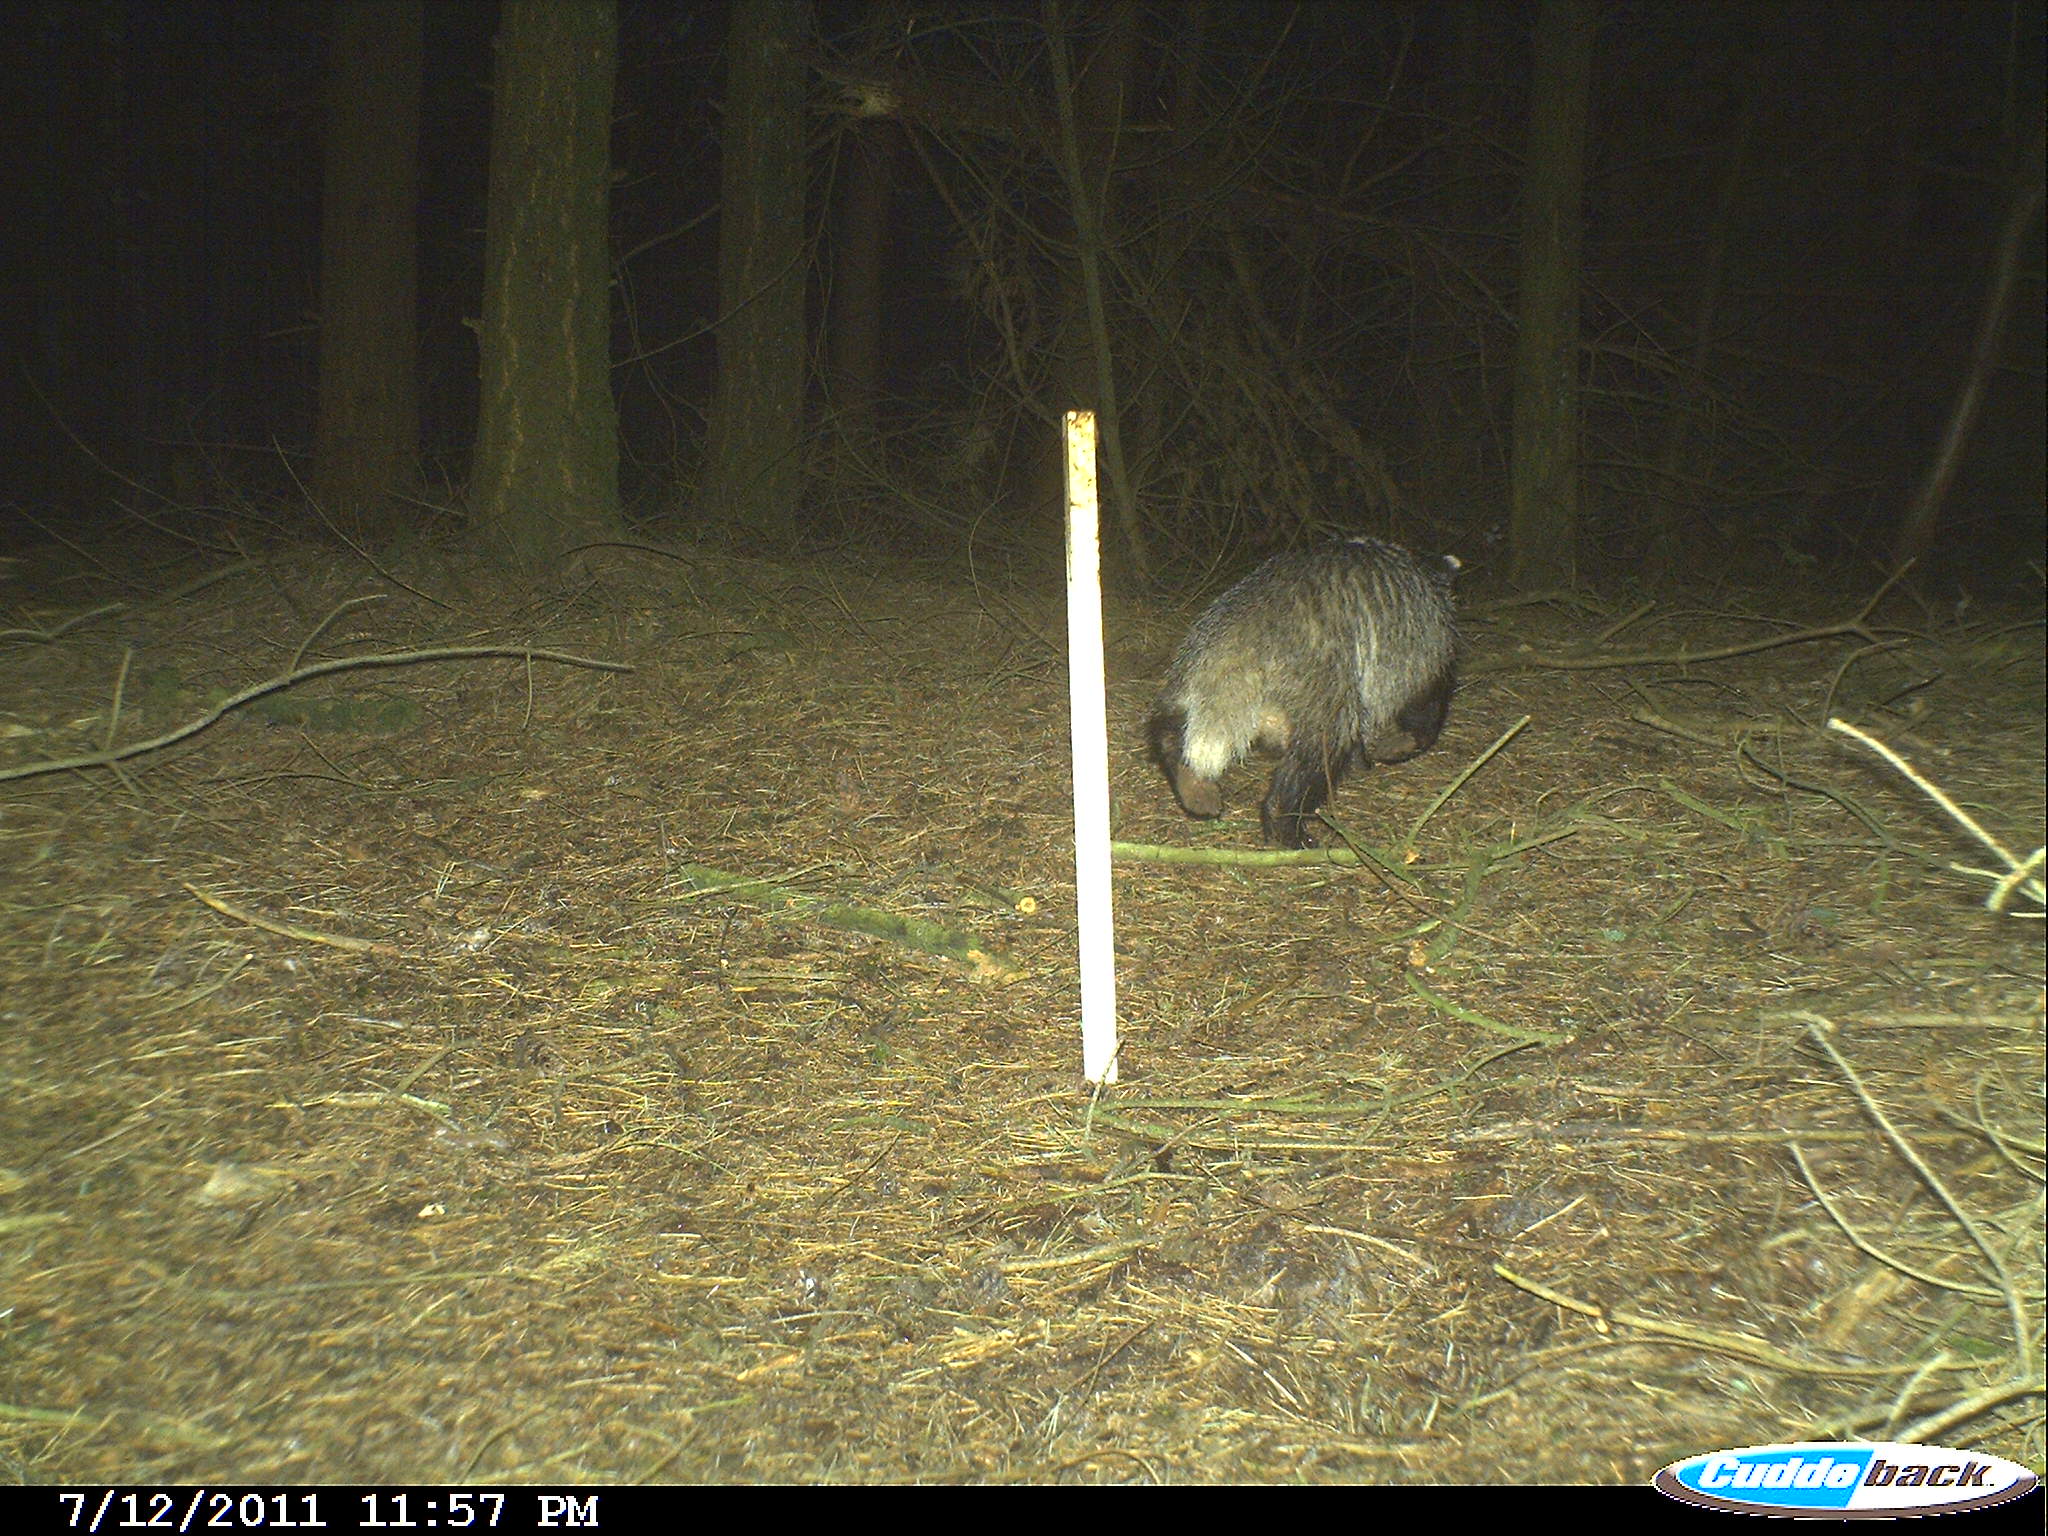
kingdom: Animalia
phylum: Chordata
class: Mammalia
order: Carnivora
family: Mustelidae
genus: Meles
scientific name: Meles meles
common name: Eurasian badger
